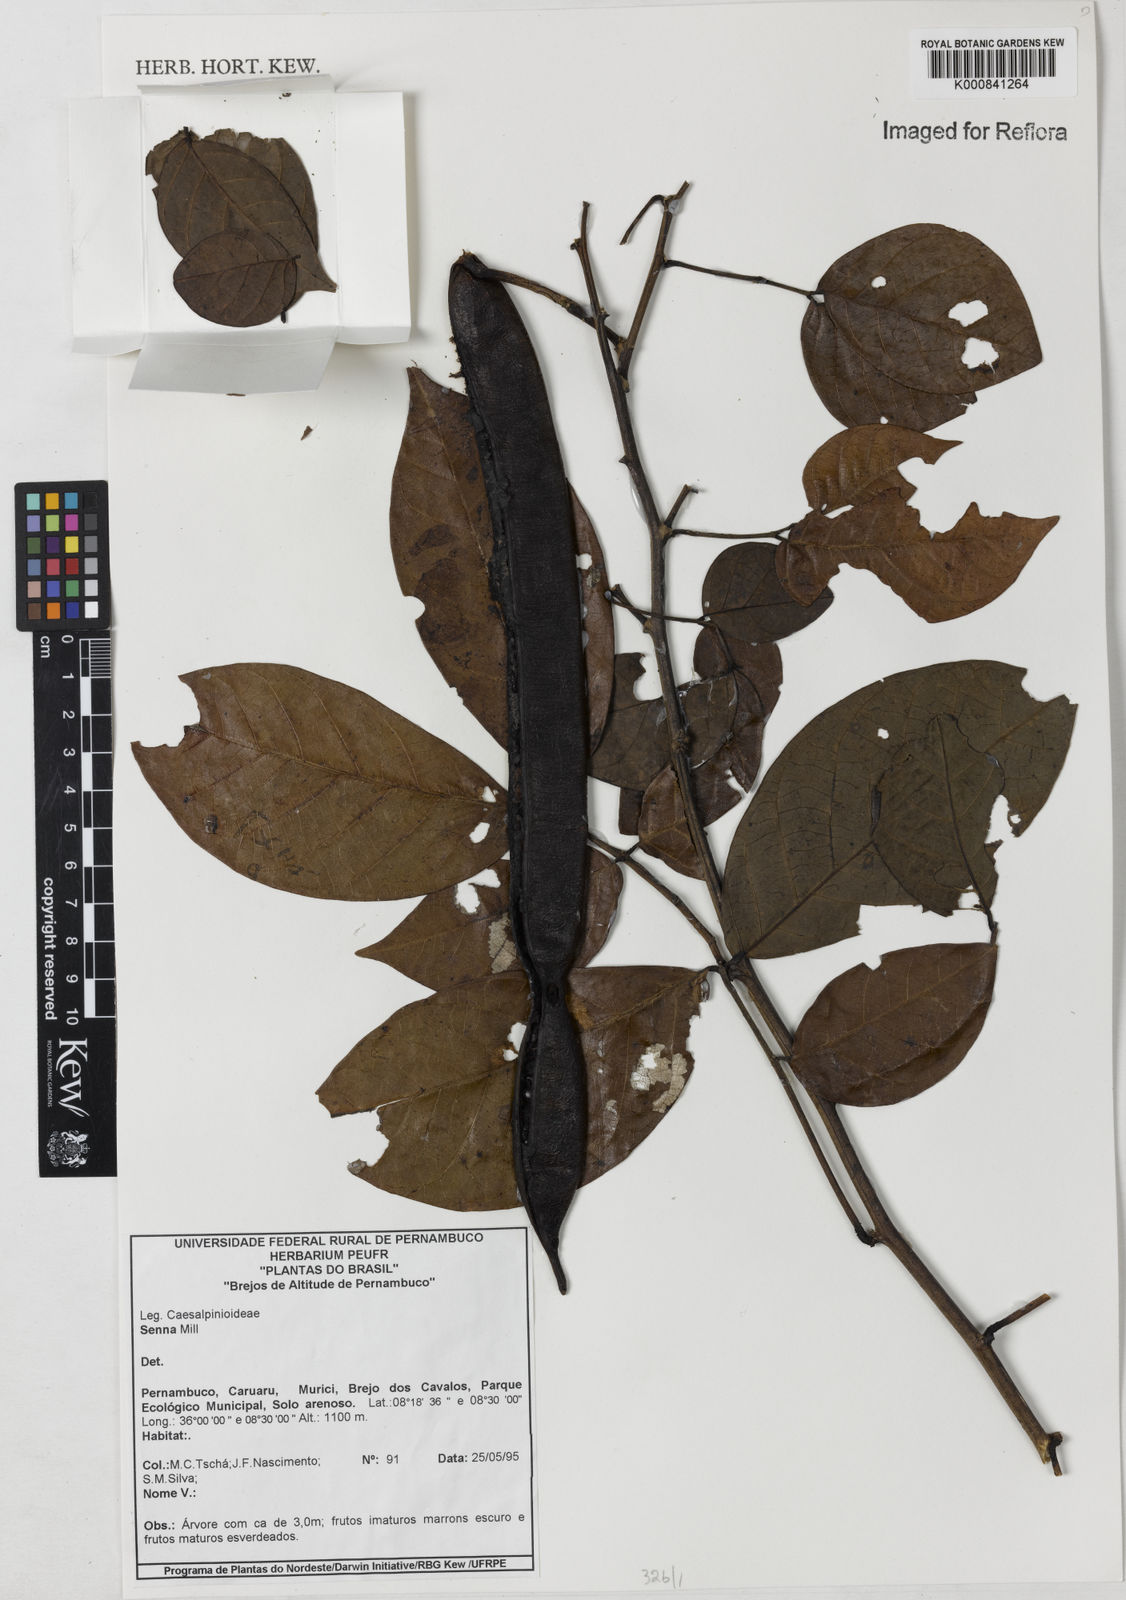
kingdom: Plantae
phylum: Tracheophyta
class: Magnoliopsida
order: Fabales
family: Fabaceae
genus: Senna
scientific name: Senna
